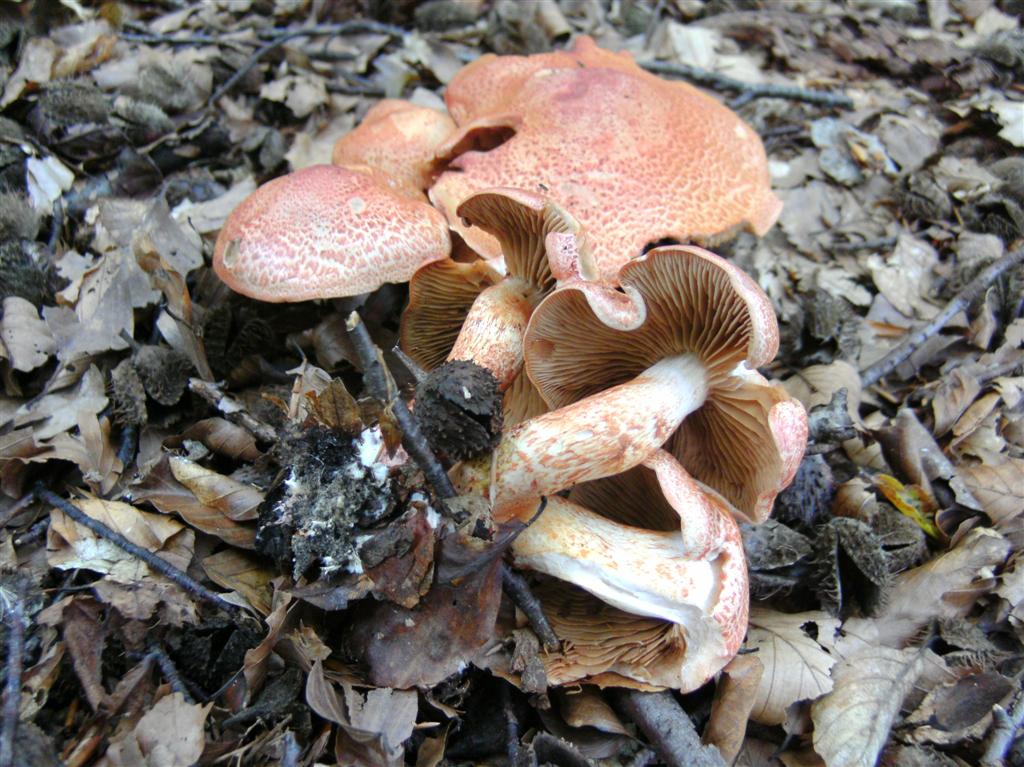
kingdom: Fungi
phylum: Basidiomycota
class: Agaricomycetes
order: Agaricales
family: Cortinariaceae
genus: Cortinarius
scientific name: Cortinarius bolaris
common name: cinnoberskællet slørhat
